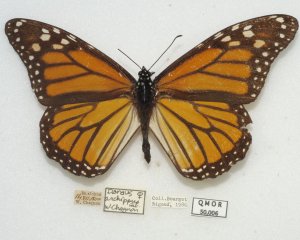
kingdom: Animalia
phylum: Arthropoda
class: Insecta
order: Lepidoptera
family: Nymphalidae
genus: Danaus
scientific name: Danaus plexippus
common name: Monarch
